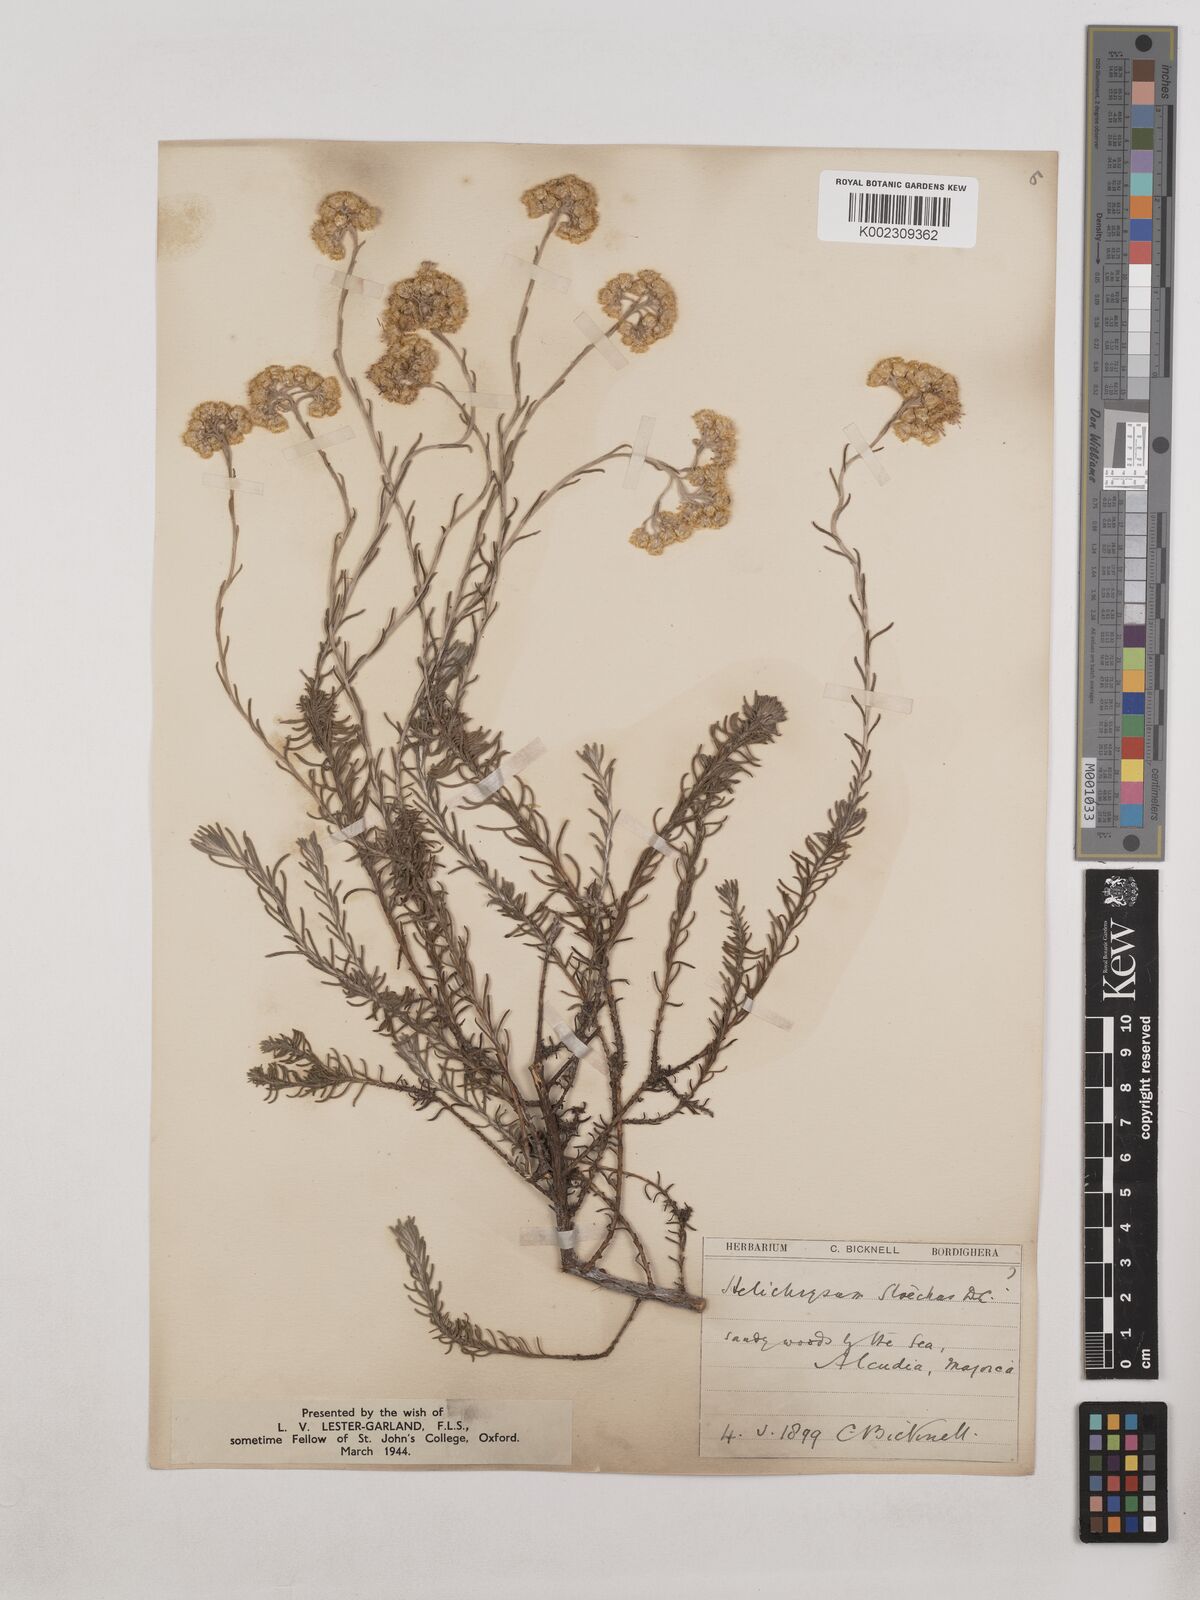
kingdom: Plantae
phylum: Tracheophyta
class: Magnoliopsida
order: Asterales
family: Asteraceae
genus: Helichrysum
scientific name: Helichrysum stoechas
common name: Goldilocks
